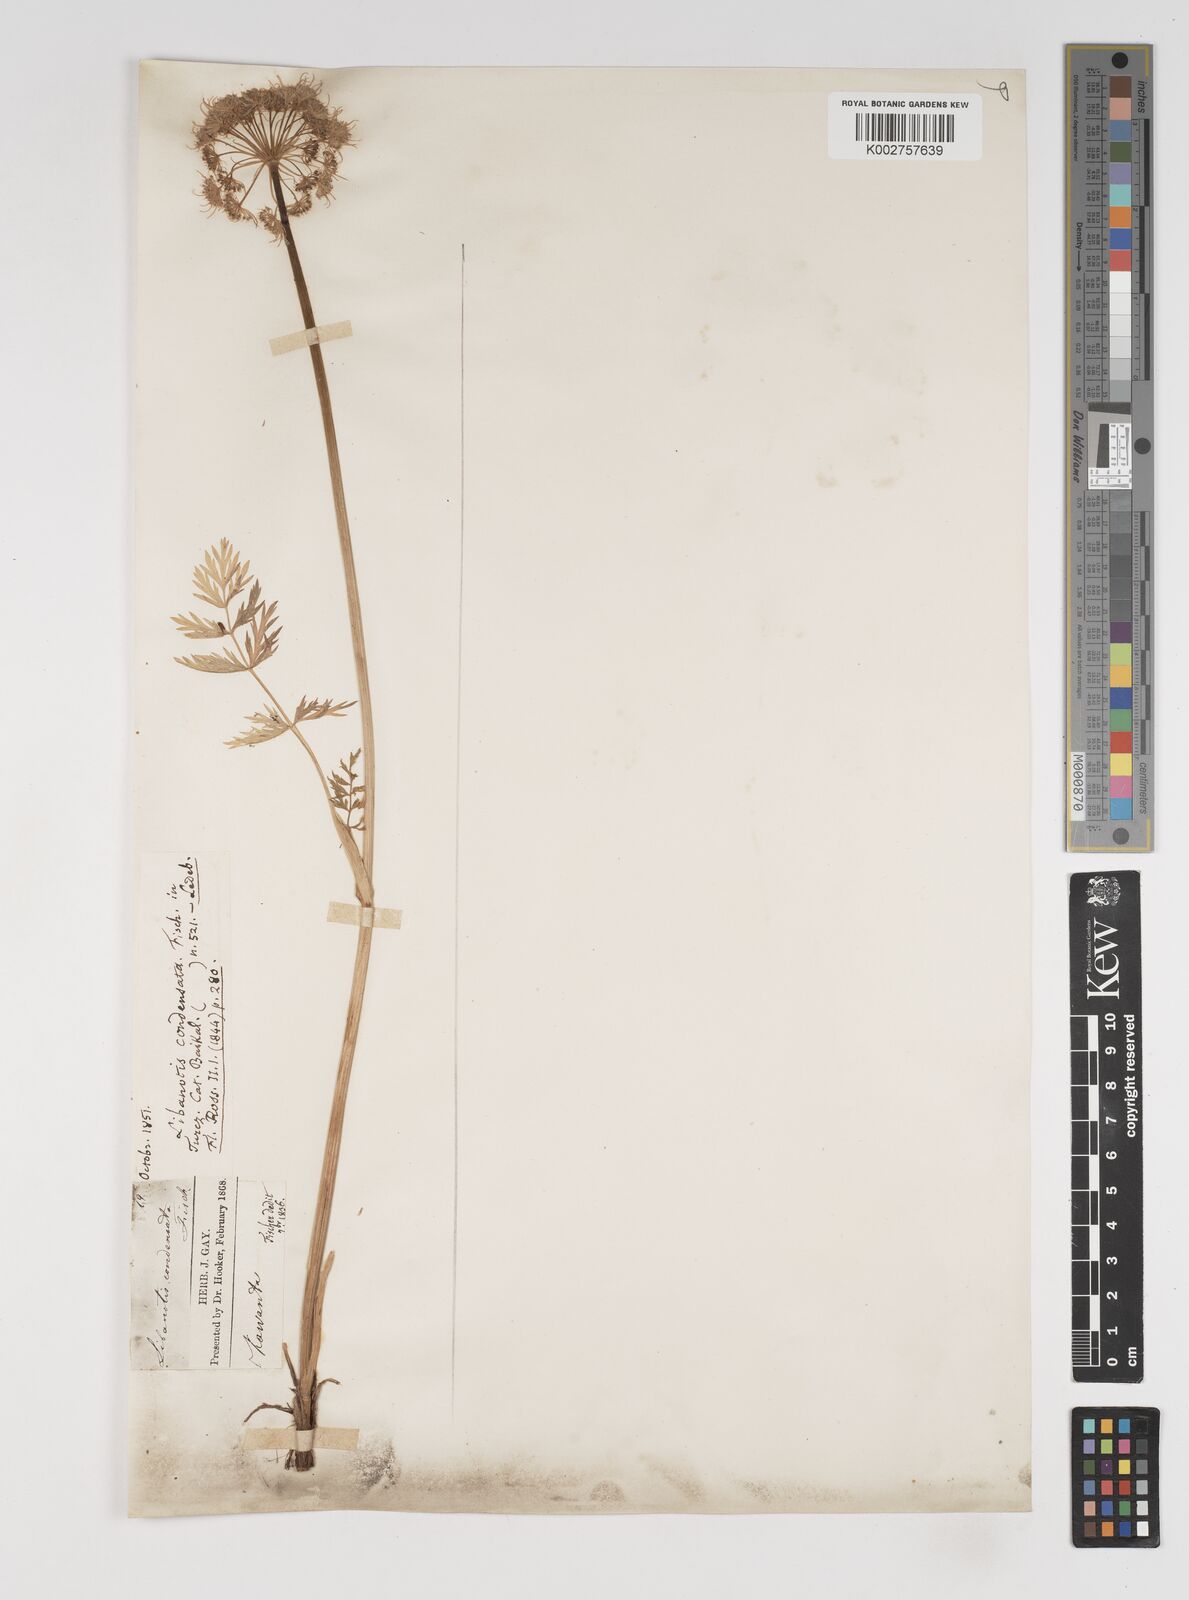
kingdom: Plantae
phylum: Tracheophyta
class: Magnoliopsida
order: Apiales
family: Apiaceae
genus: Seseli
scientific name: Seseli condensatum
